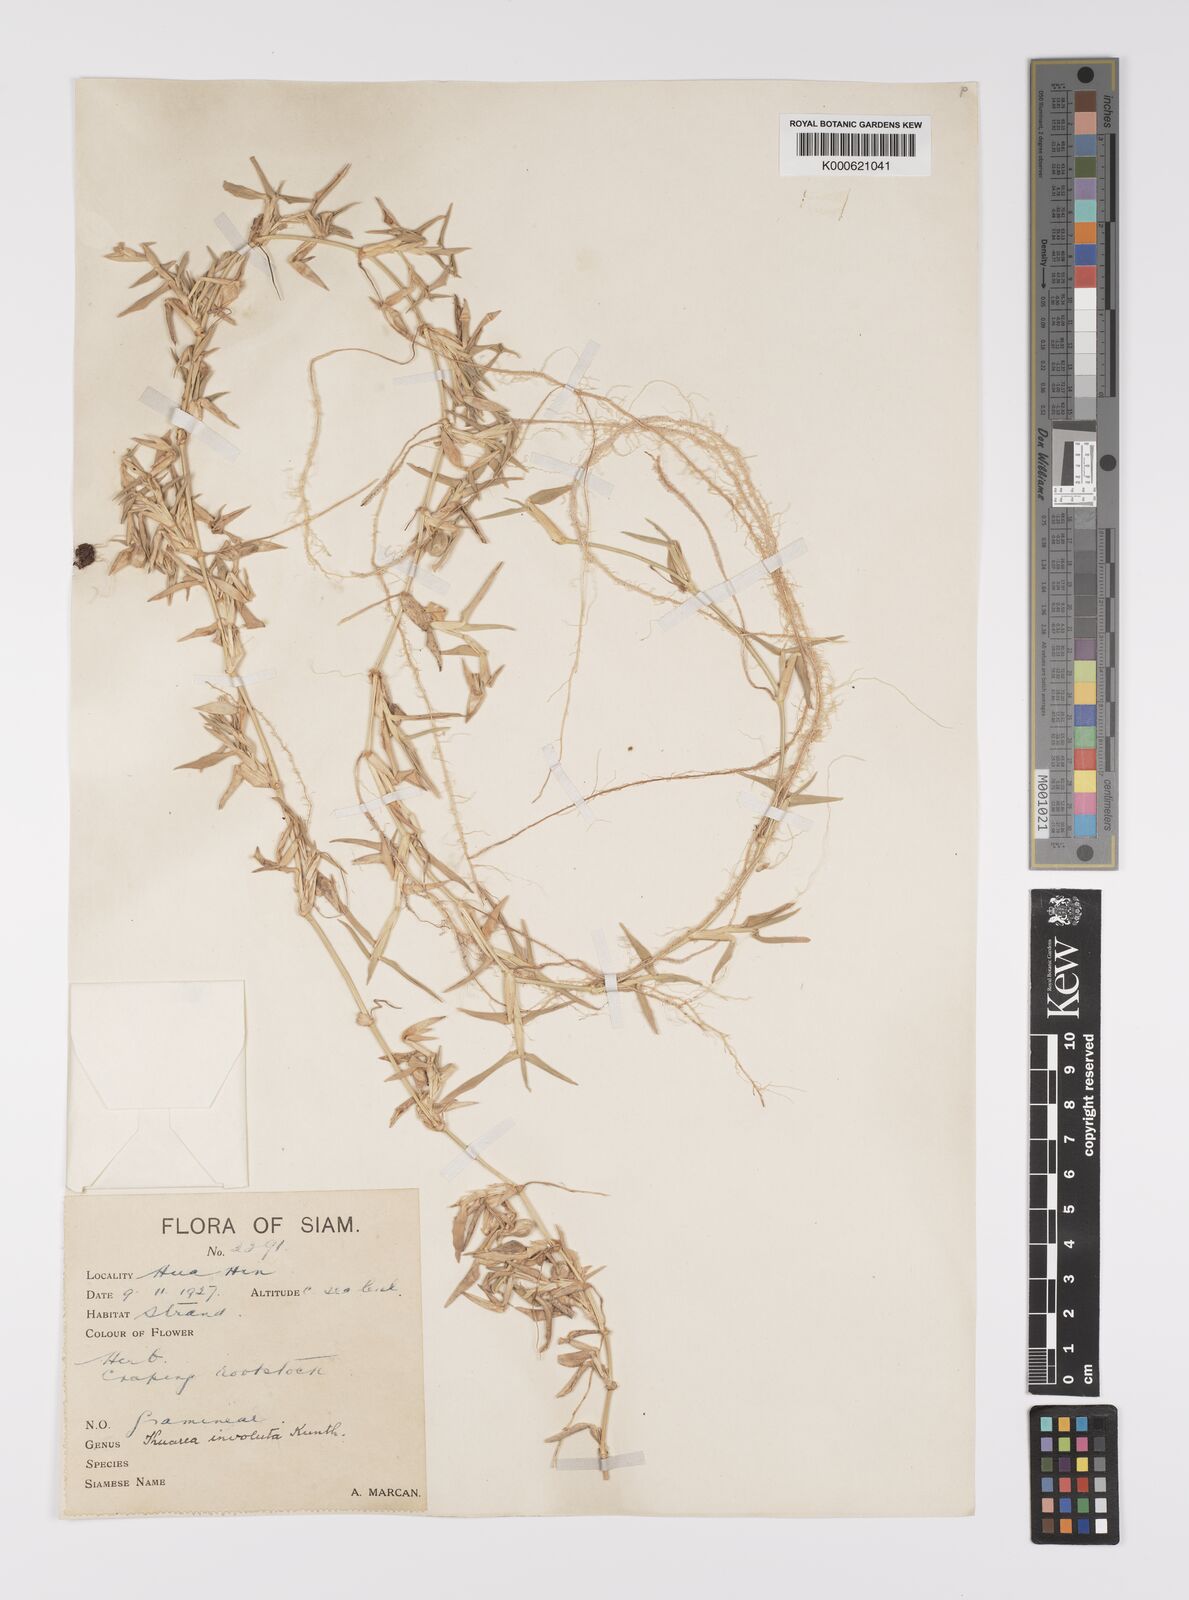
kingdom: Plantae
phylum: Tracheophyta
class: Liliopsida
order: Poales
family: Poaceae
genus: Thuarea
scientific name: Thuarea involuta
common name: Tropical beach grass
